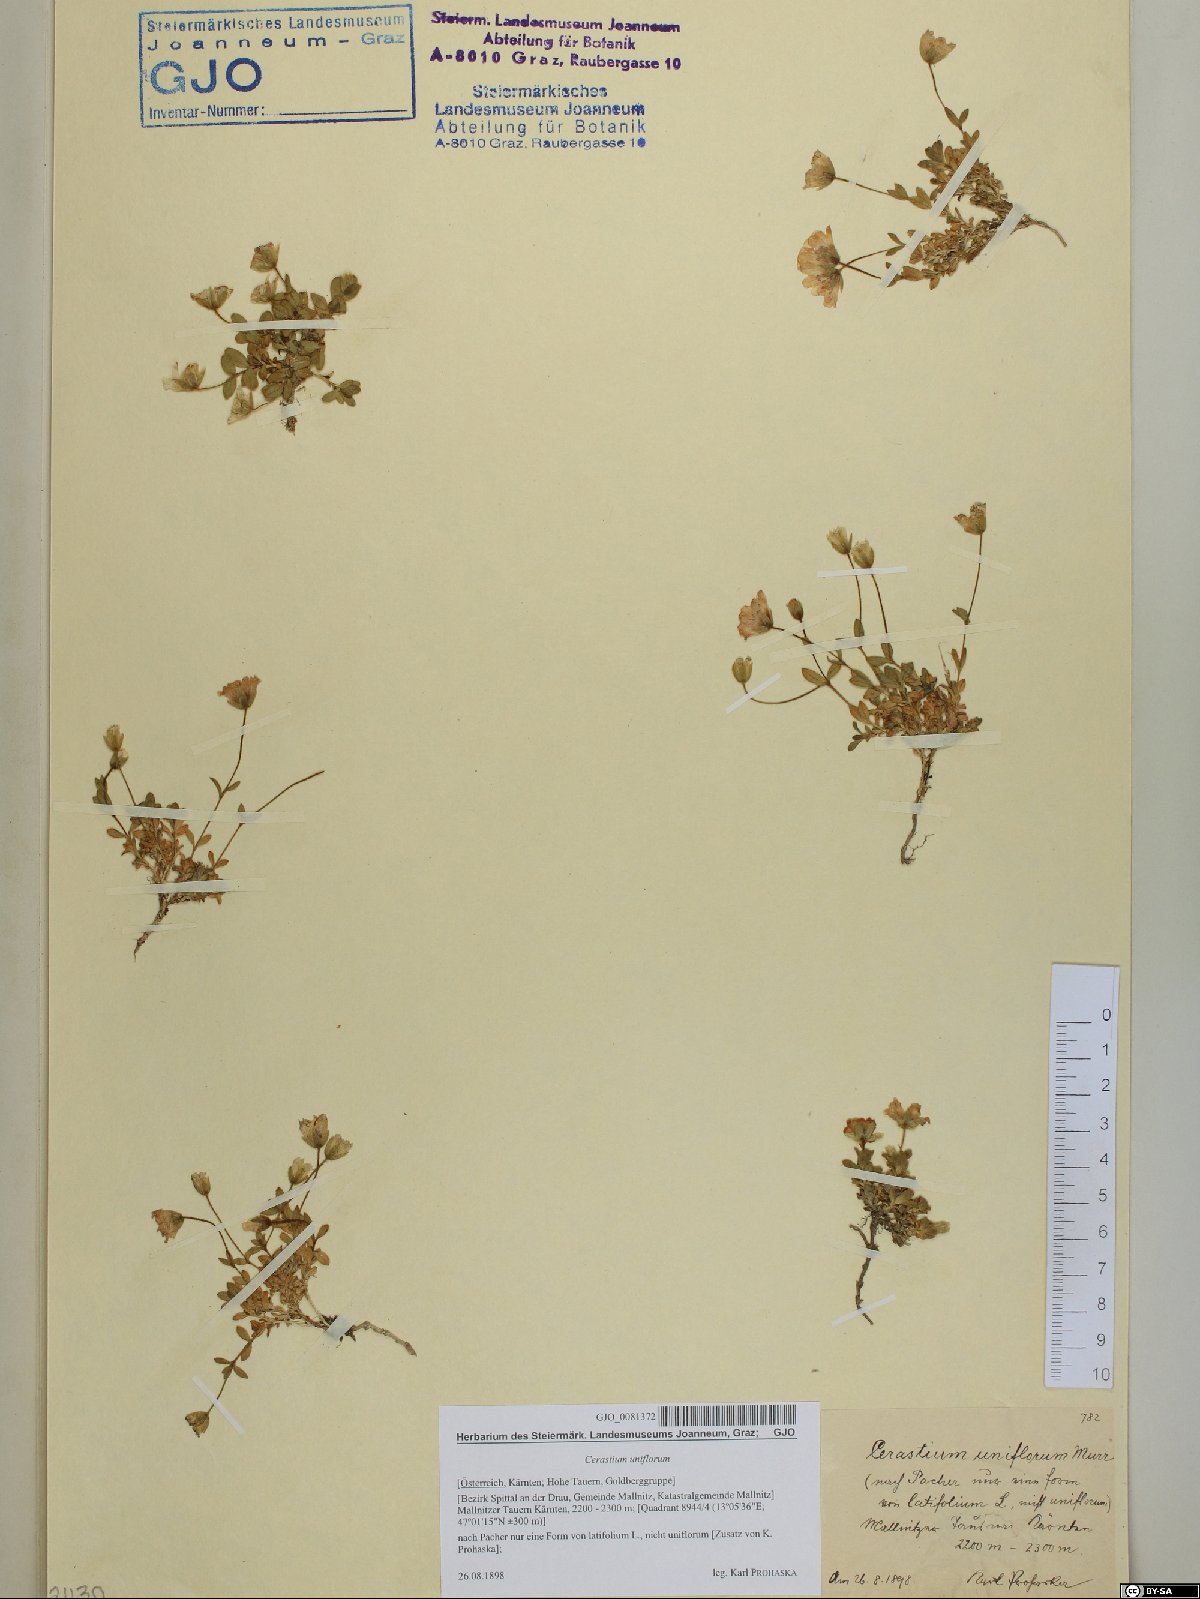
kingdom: Plantae
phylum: Tracheophyta
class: Magnoliopsida
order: Caryophyllales
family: Caryophyllaceae
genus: Cerastium
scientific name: Cerastium uniflorum
